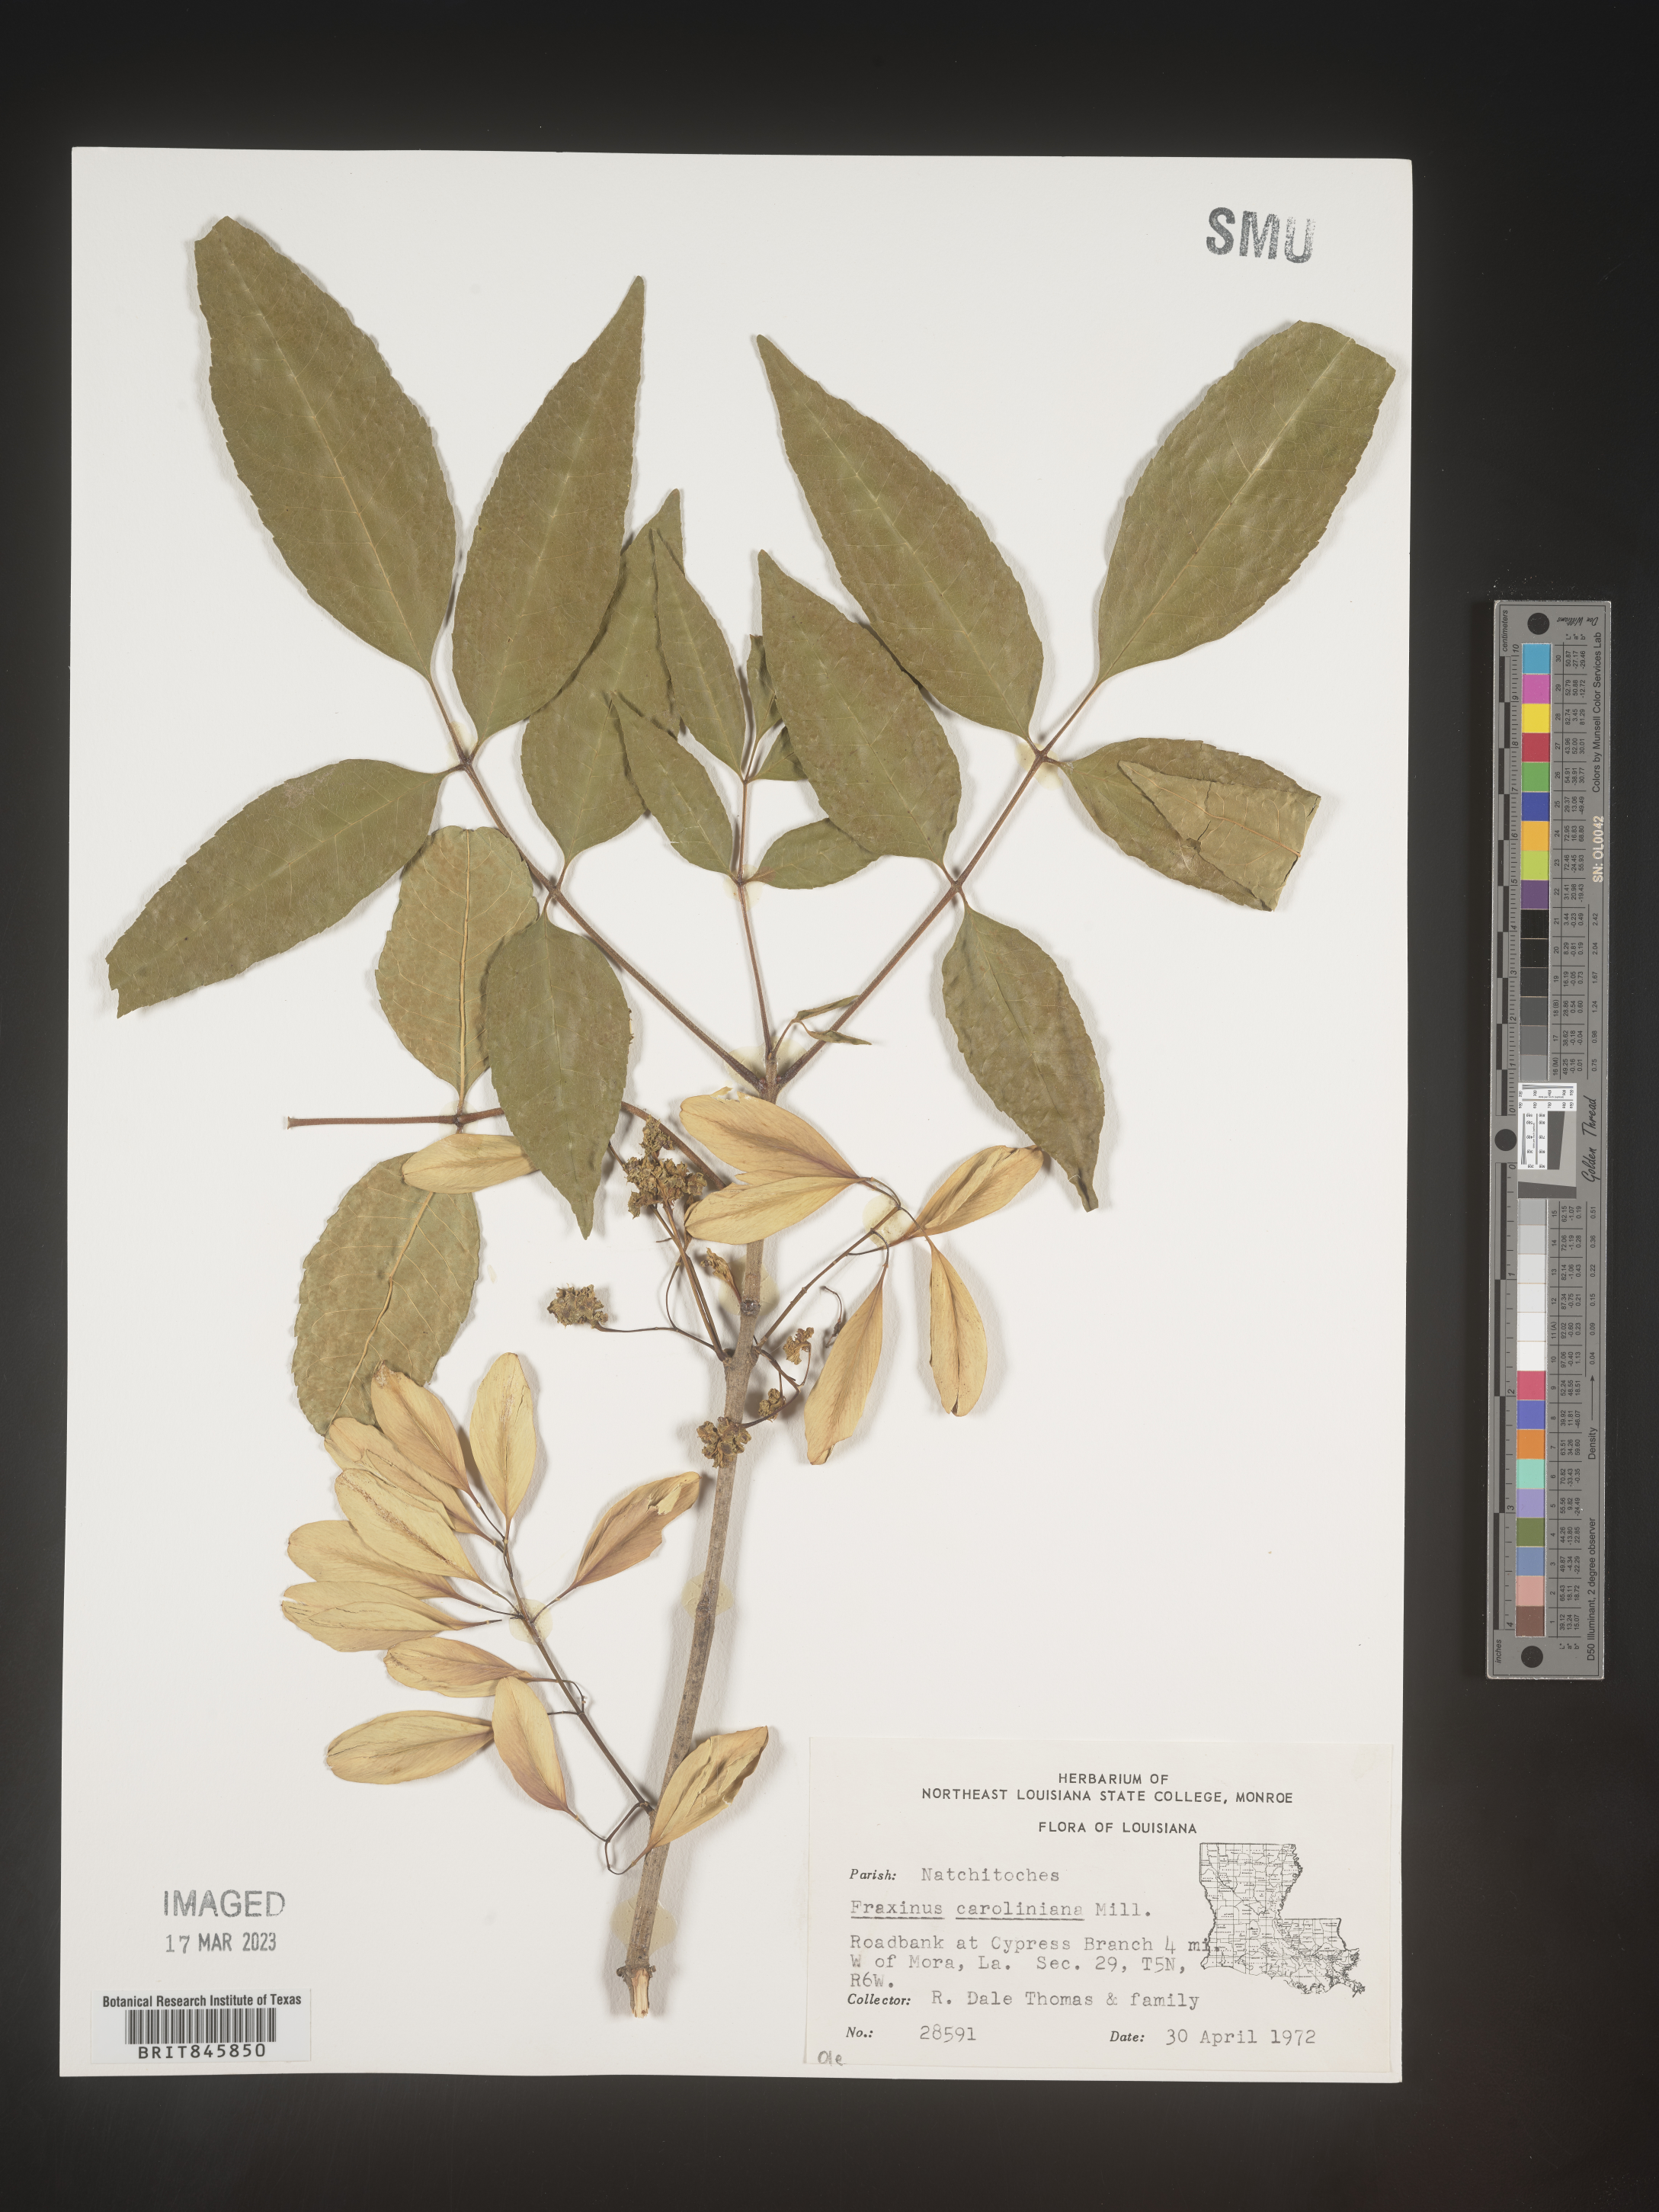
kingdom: Plantae
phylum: Tracheophyta
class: Magnoliopsida
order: Lamiales
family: Oleaceae
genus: Fraxinus
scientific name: Fraxinus caroliniana
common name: Carolina ash
